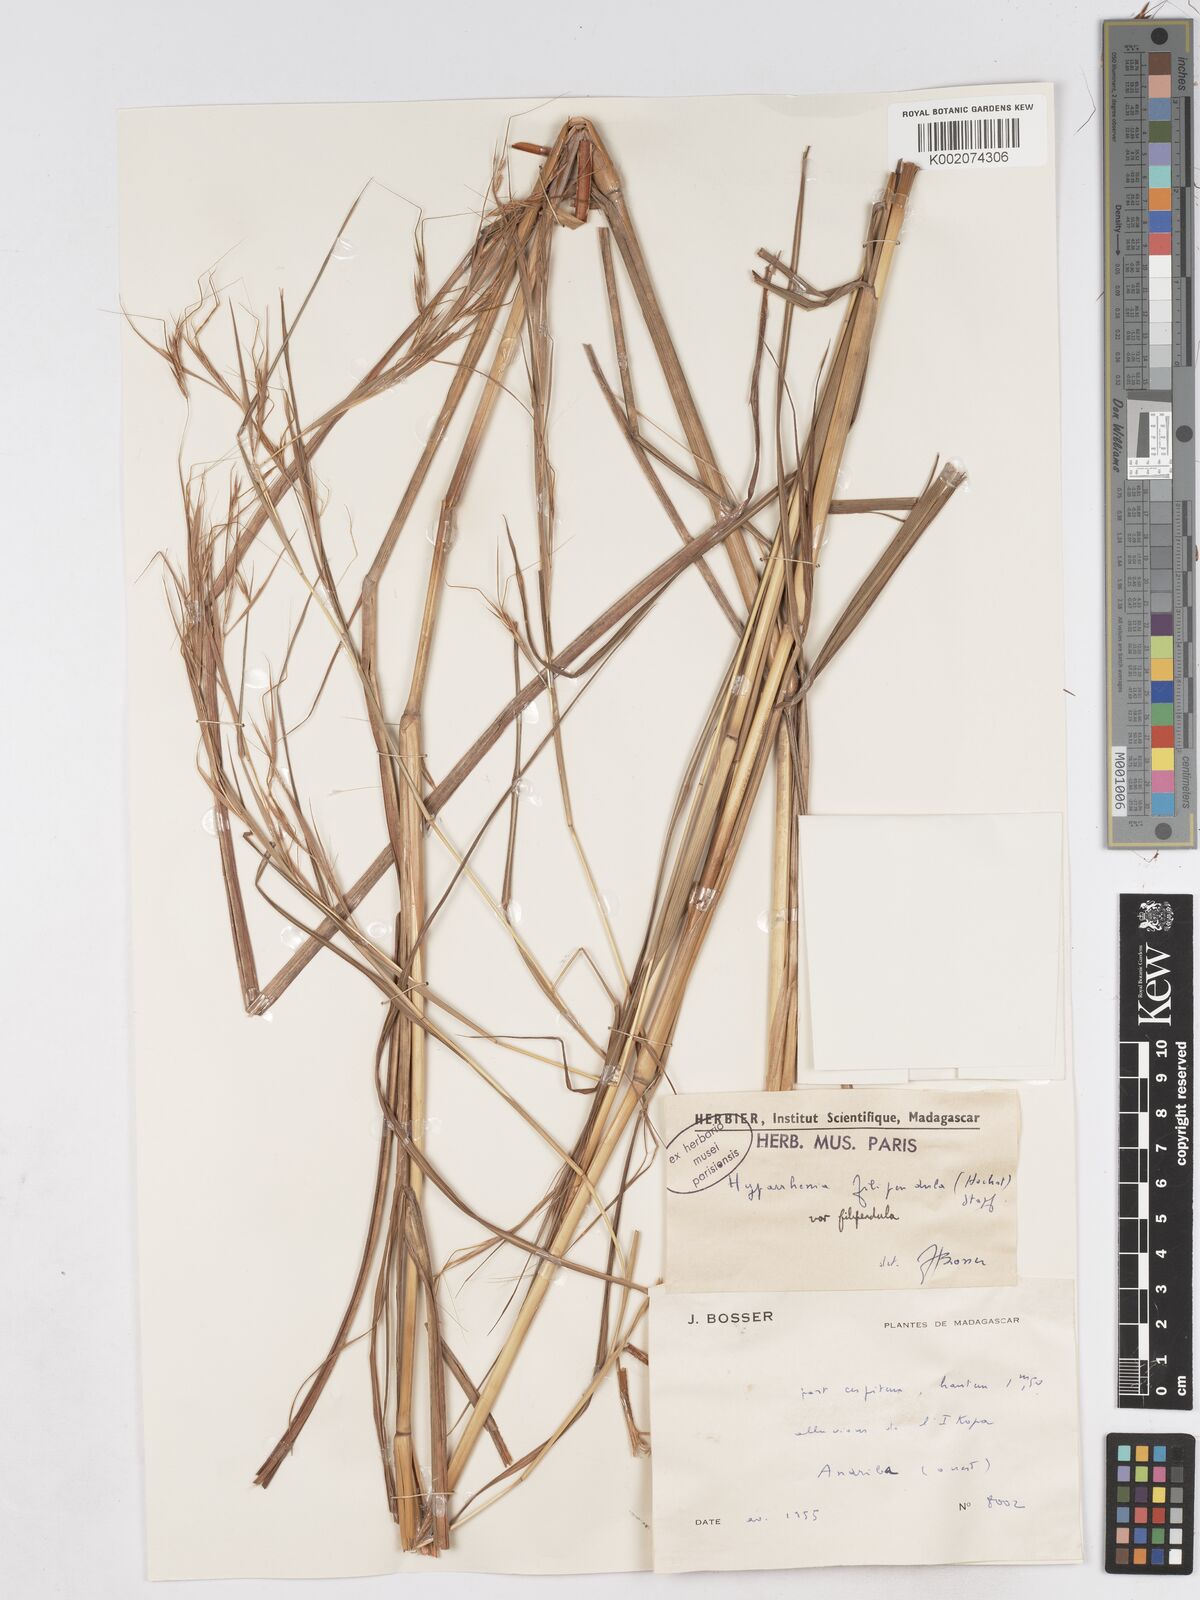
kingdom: Plantae
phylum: Tracheophyta
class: Liliopsida
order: Poales
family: Poaceae
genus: Hyparrhenia
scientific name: Hyparrhenia filipendula
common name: Tambookie grass
